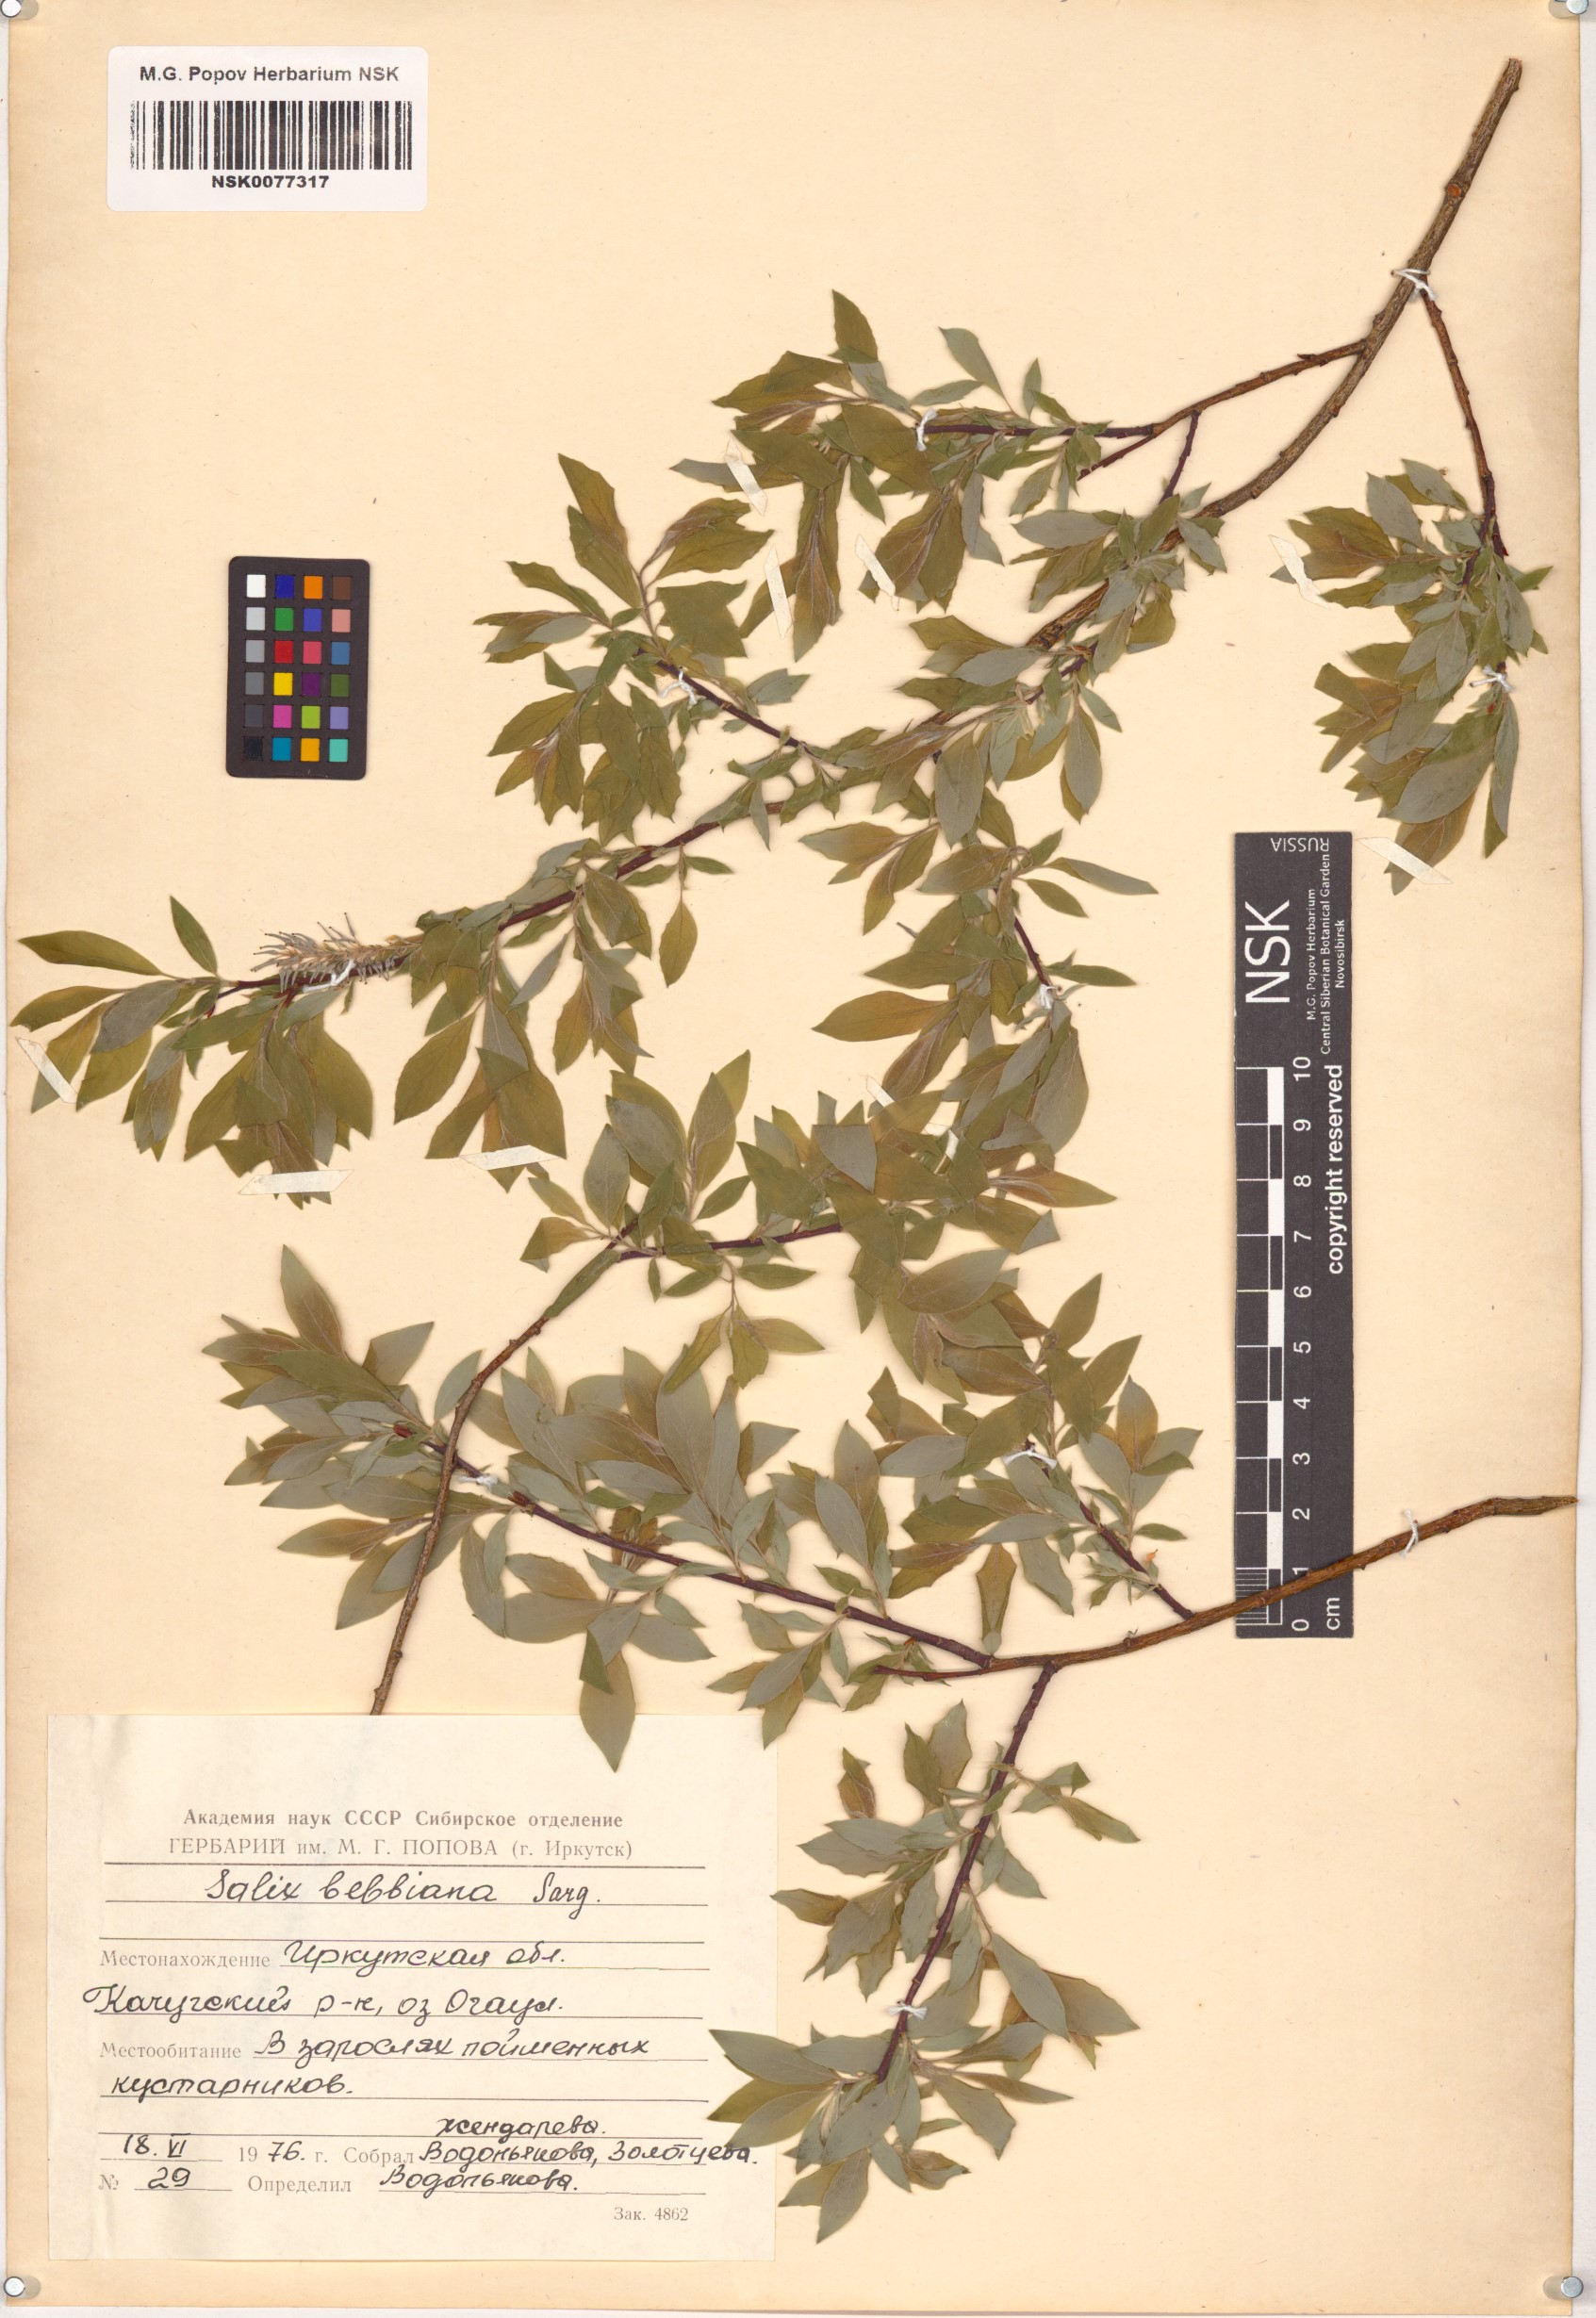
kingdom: Plantae
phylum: Tracheophyta
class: Magnoliopsida
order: Malpighiales
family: Salicaceae
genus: Salix
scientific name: Salix bebbiana
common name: Bebb's willow
